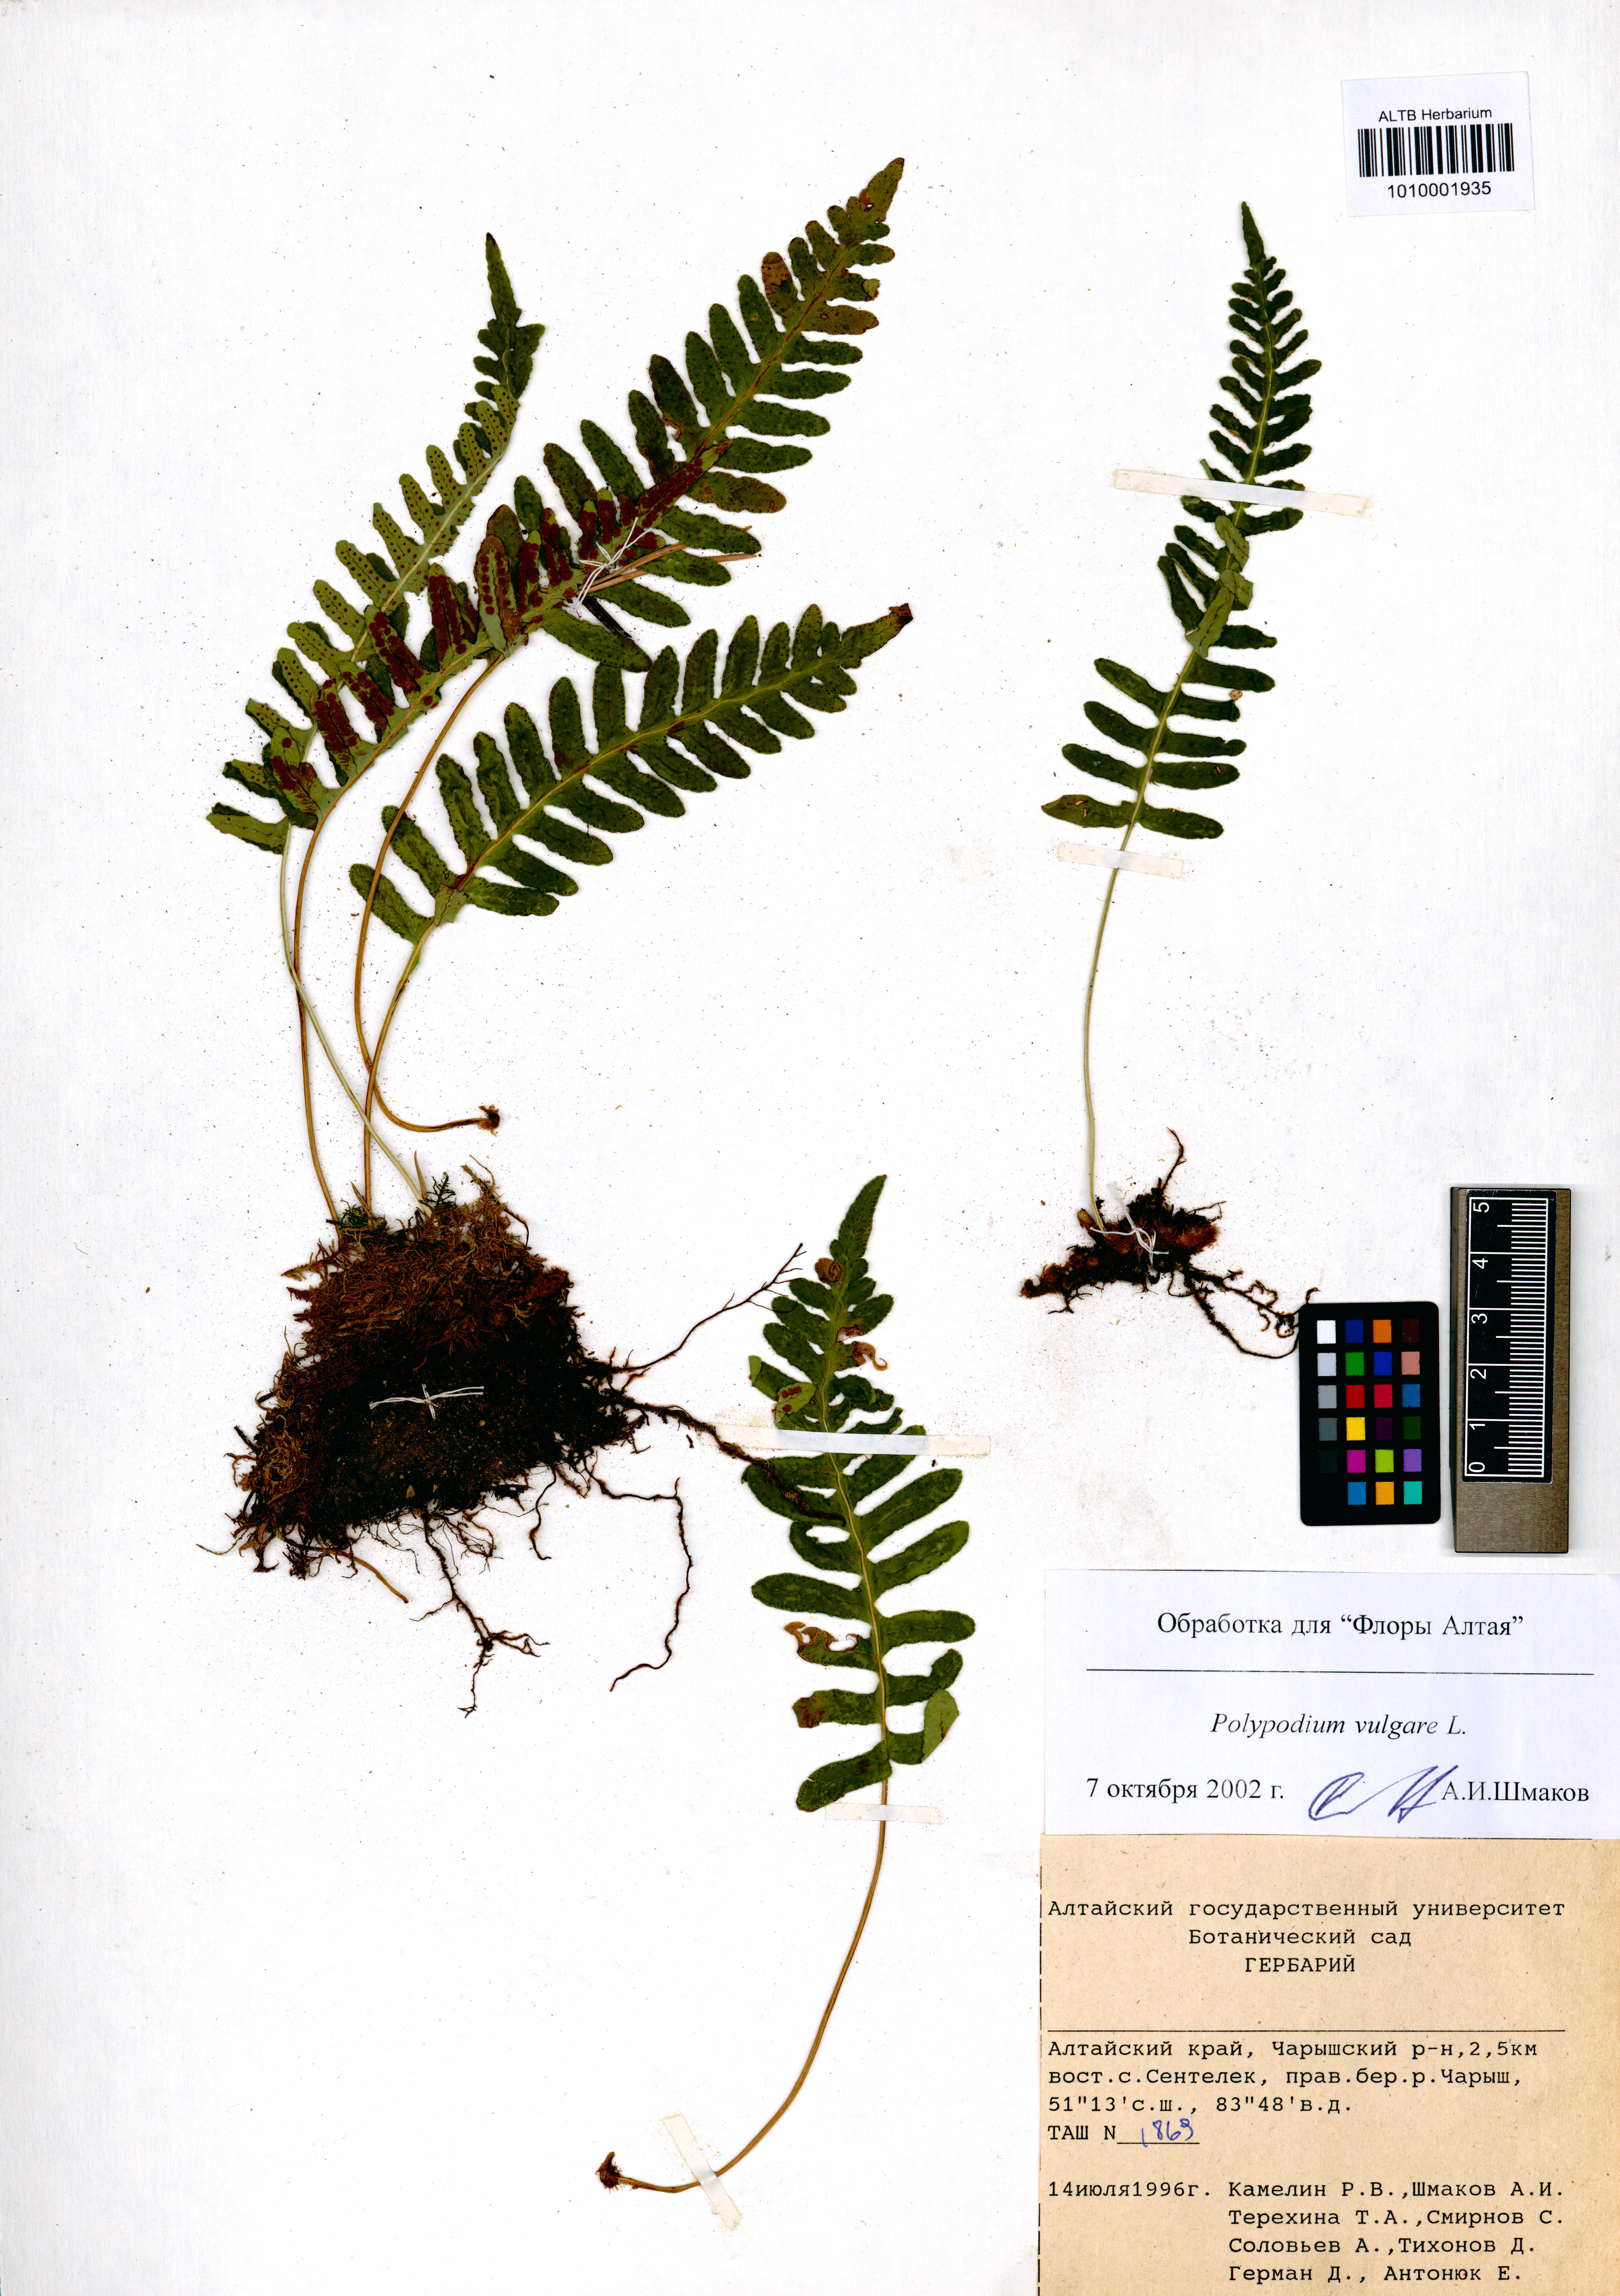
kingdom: Plantae
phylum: Tracheophyta
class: Polypodiopsida
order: Polypodiales
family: Polypodiaceae
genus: Polypodium
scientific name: Polypodium vulgare
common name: Common polypody
